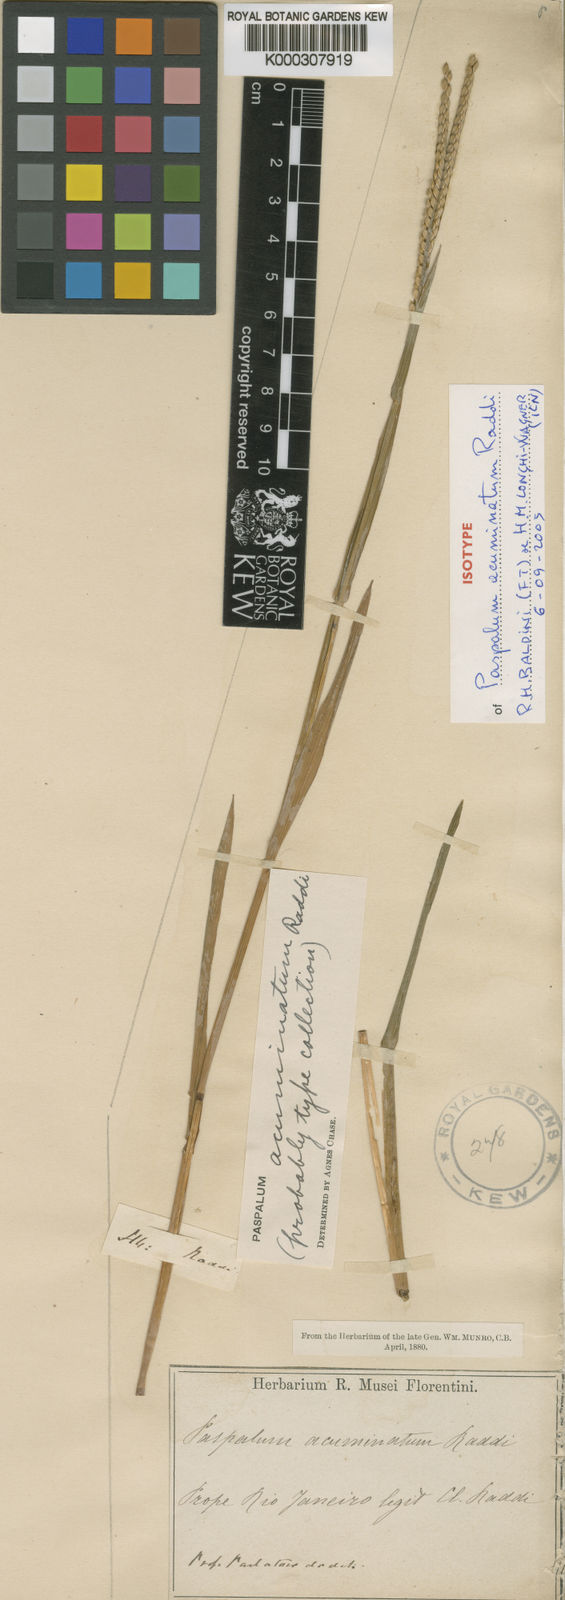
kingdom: Plantae
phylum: Tracheophyta
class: Liliopsida
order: Poales
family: Poaceae
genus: Paspalum
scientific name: Paspalum acuminatum
